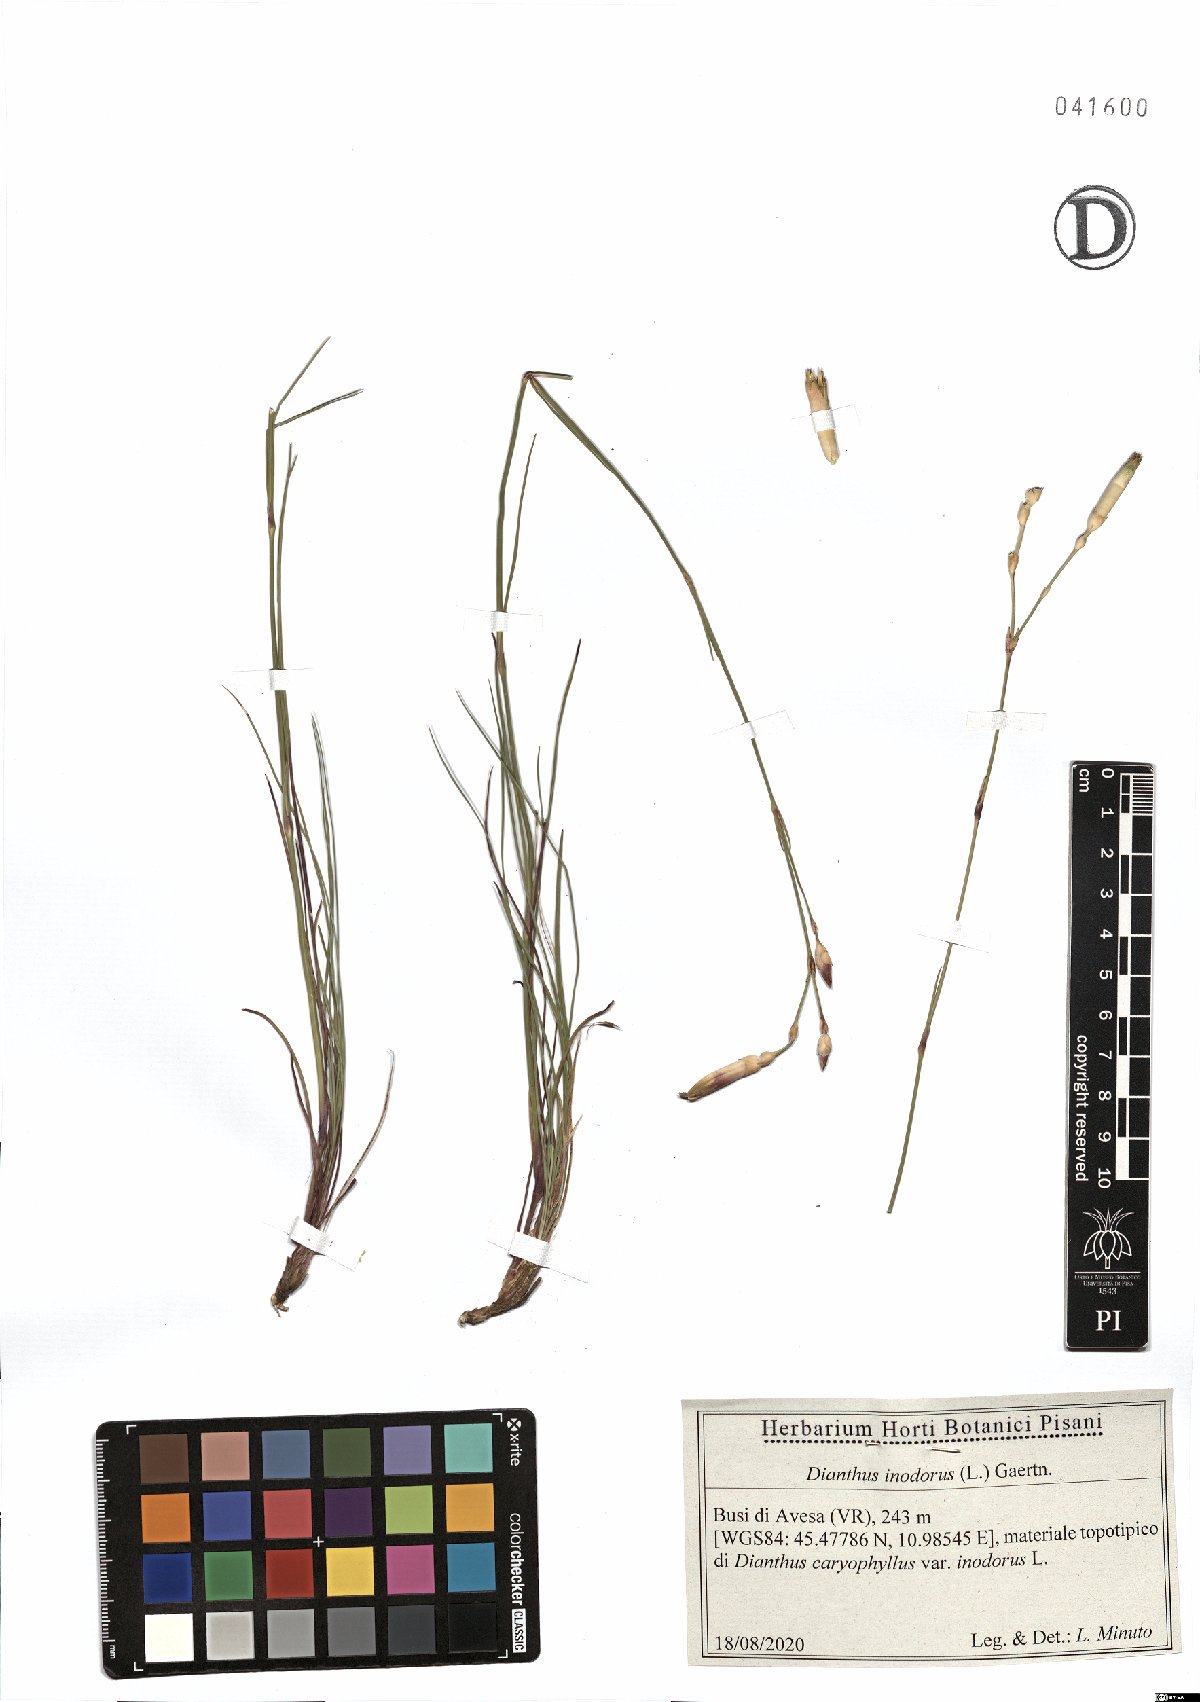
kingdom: Plantae
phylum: Tracheophyta
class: Magnoliopsida
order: Caryophyllales
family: Caryophyllaceae
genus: Dianthus
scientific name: Dianthus sylvestris
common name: Wood pink
